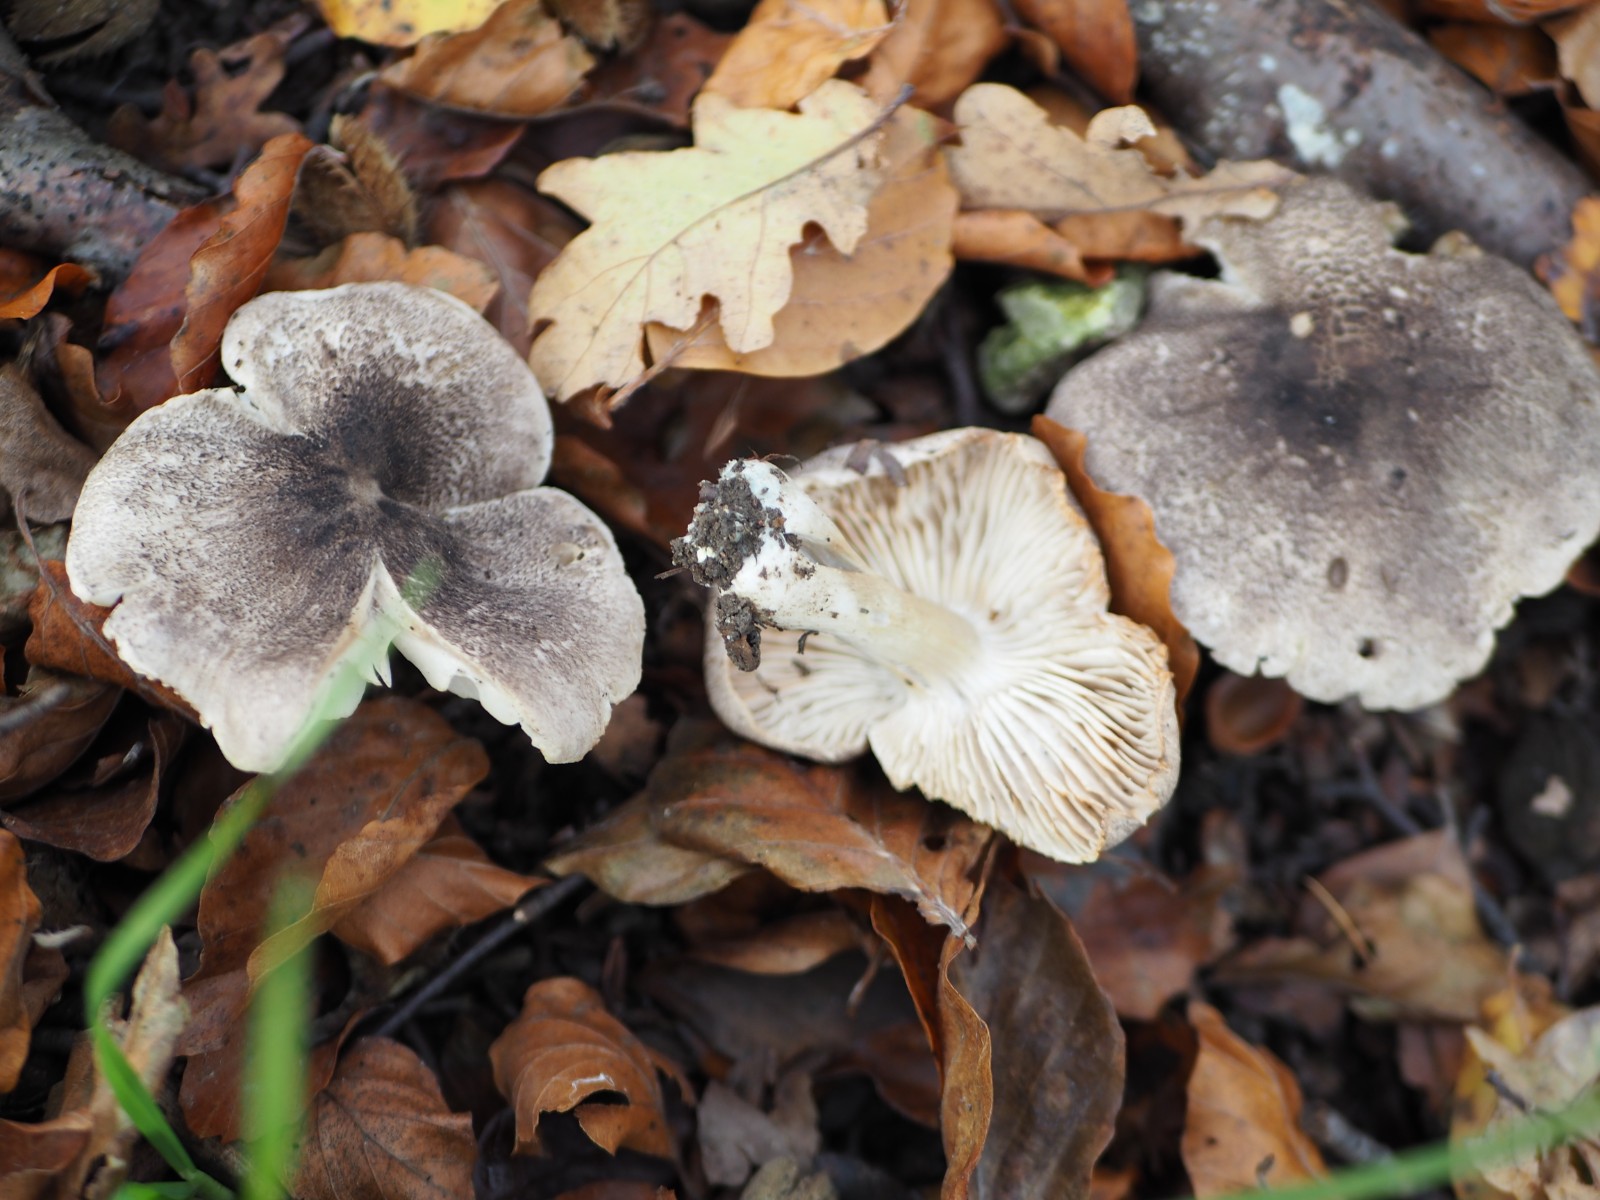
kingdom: Fungi
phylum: Basidiomycota
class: Agaricomycetes
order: Agaricales
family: Tricholomataceae
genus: Tricholoma
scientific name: Tricholoma orirubens
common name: rødbladet ridderhat
